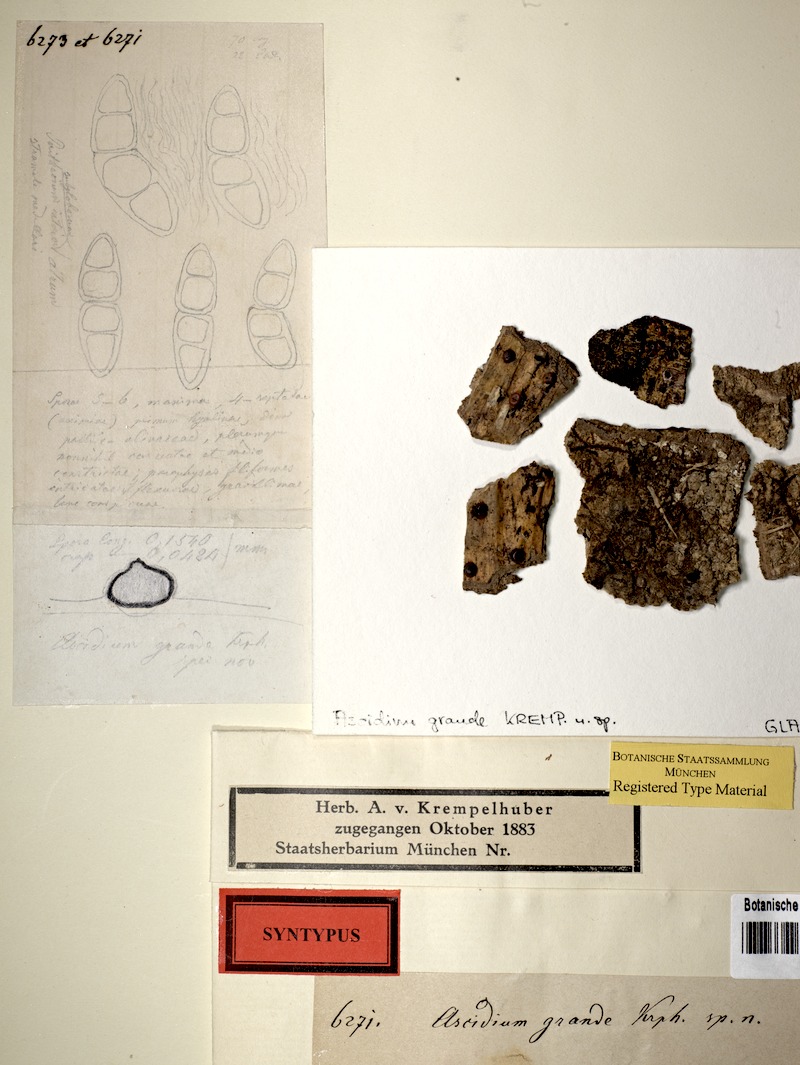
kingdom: Fungi
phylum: Ascomycota
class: Dothideomycetes
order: Trypetheliales
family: Trypetheliaceae
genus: Architrypethelium
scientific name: Architrypethelium grande
